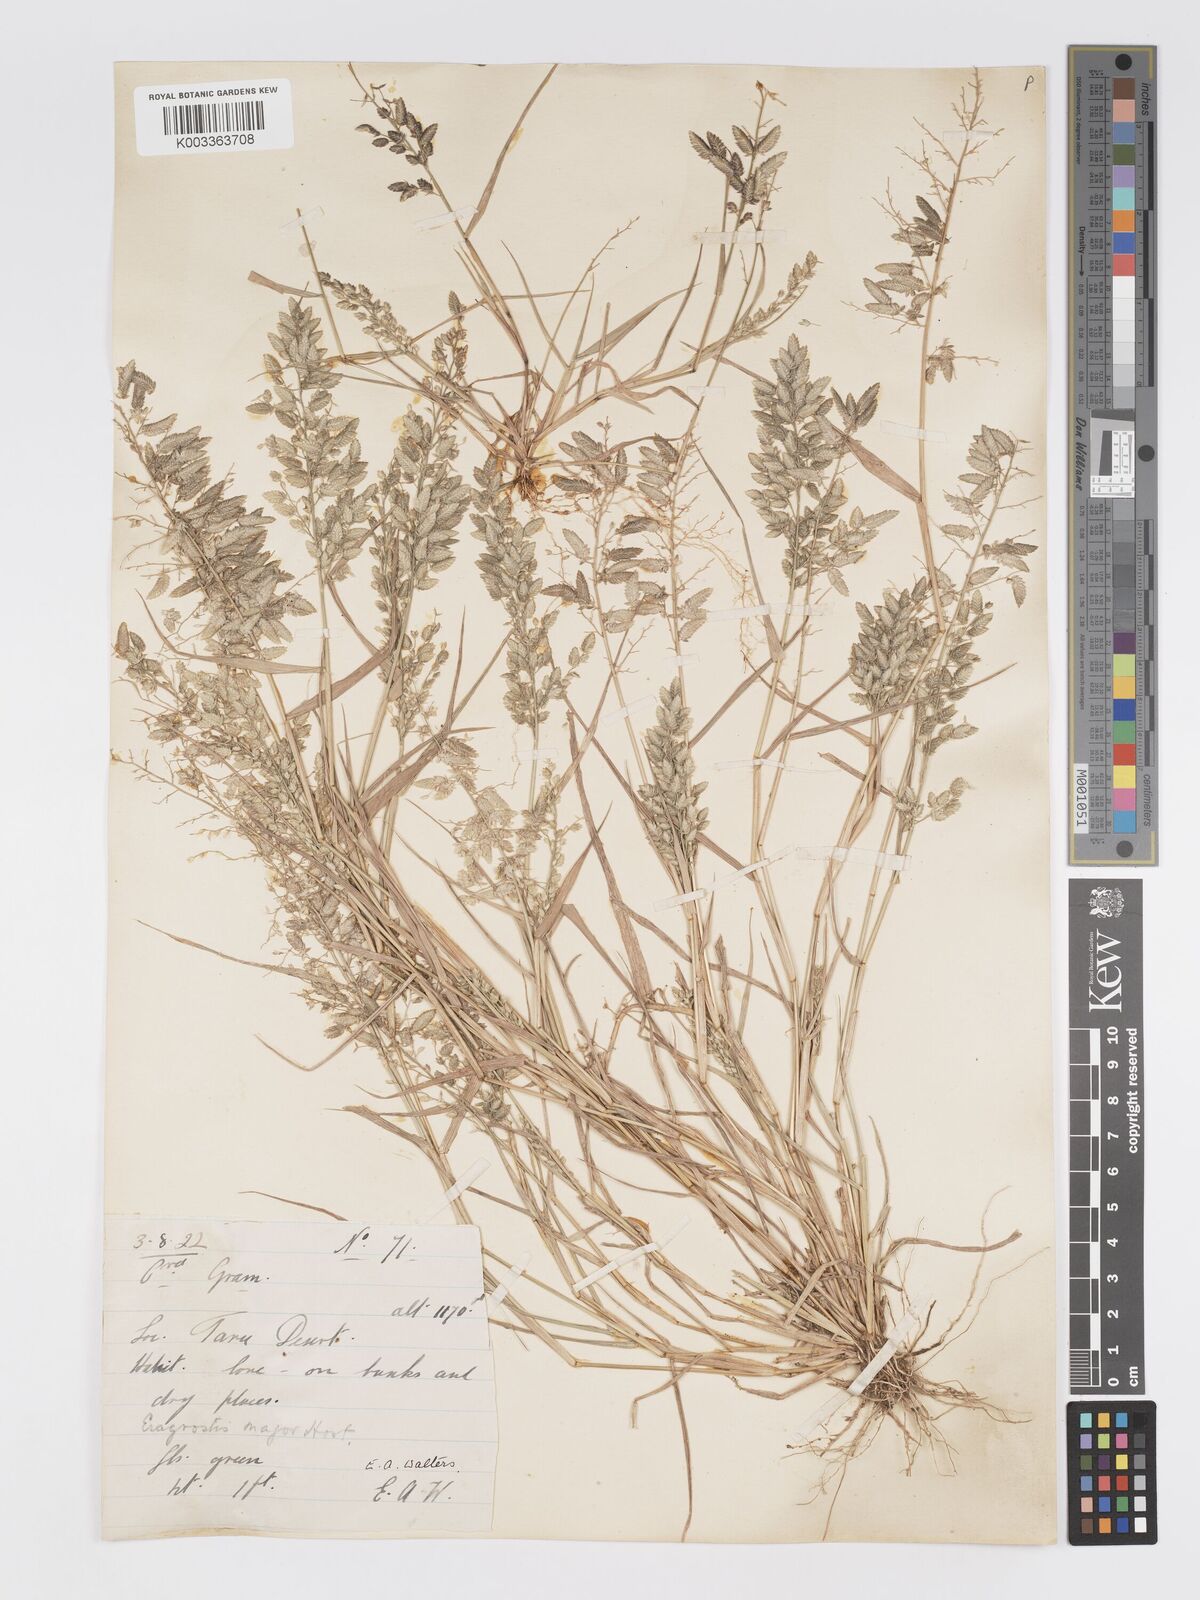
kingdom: Plantae
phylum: Tracheophyta
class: Liliopsida
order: Poales
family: Poaceae
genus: Eragrostis
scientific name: Eragrostis cilianensis
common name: Stinkgrass
